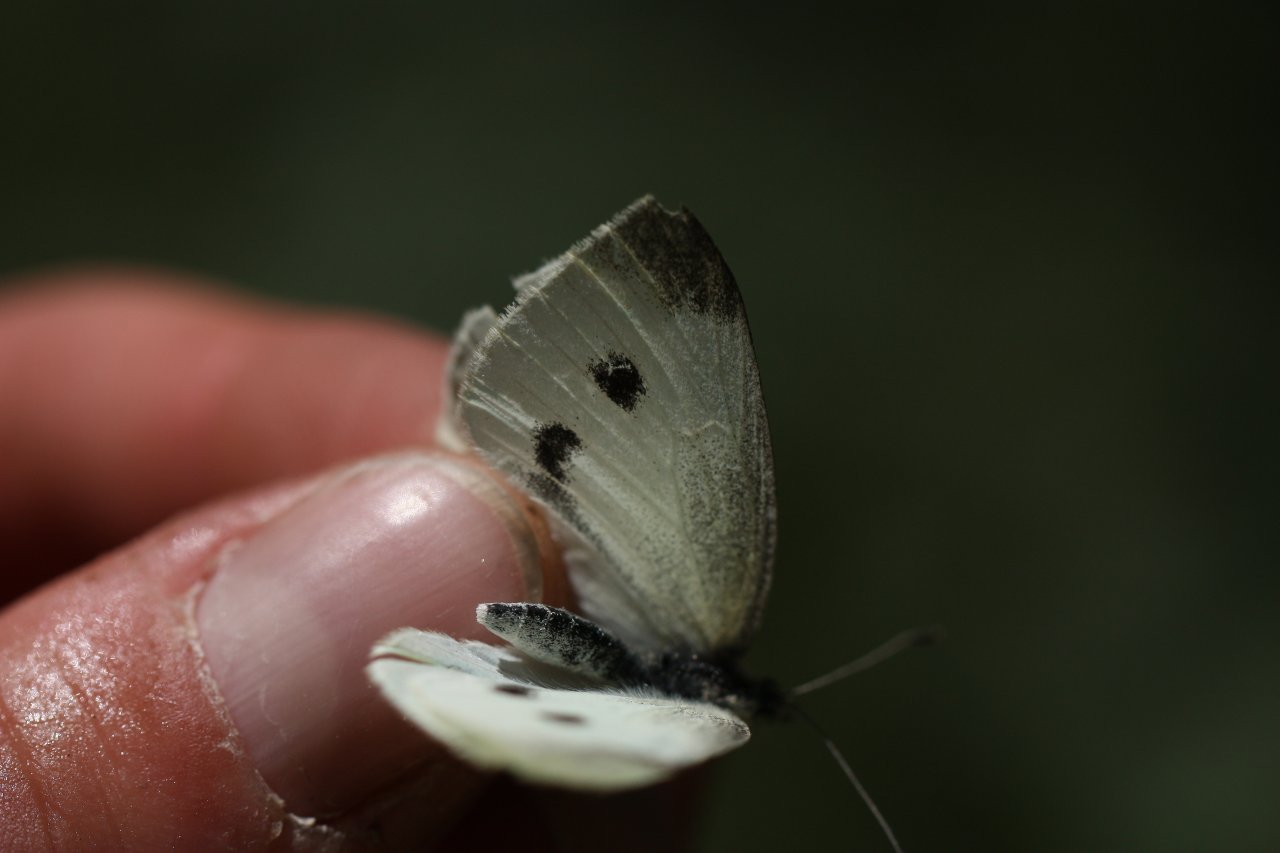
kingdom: Animalia
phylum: Arthropoda
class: Insecta
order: Lepidoptera
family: Pieridae
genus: Pieris
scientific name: Pieris rapae
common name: Cabbage White
